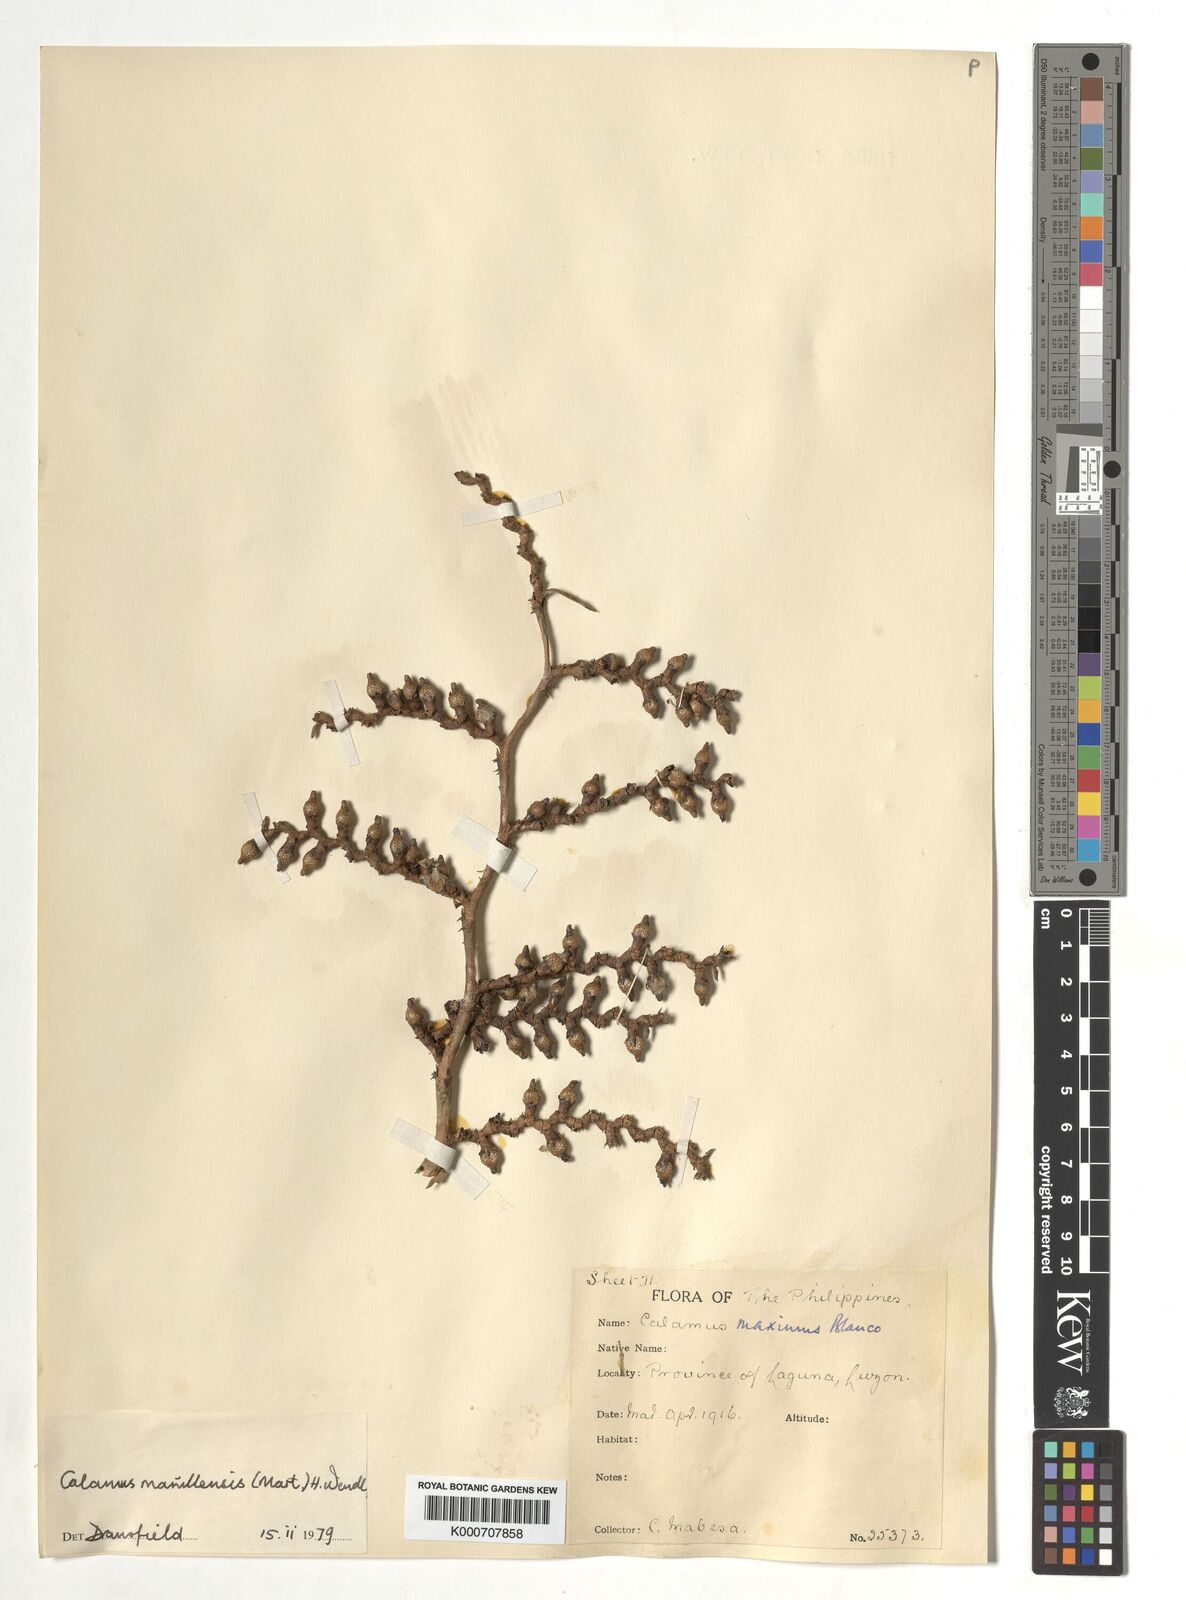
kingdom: Plantae
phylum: Tracheophyta
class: Liliopsida
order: Arecales
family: Arecaceae
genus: Calamus
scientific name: Calamus manillensis
